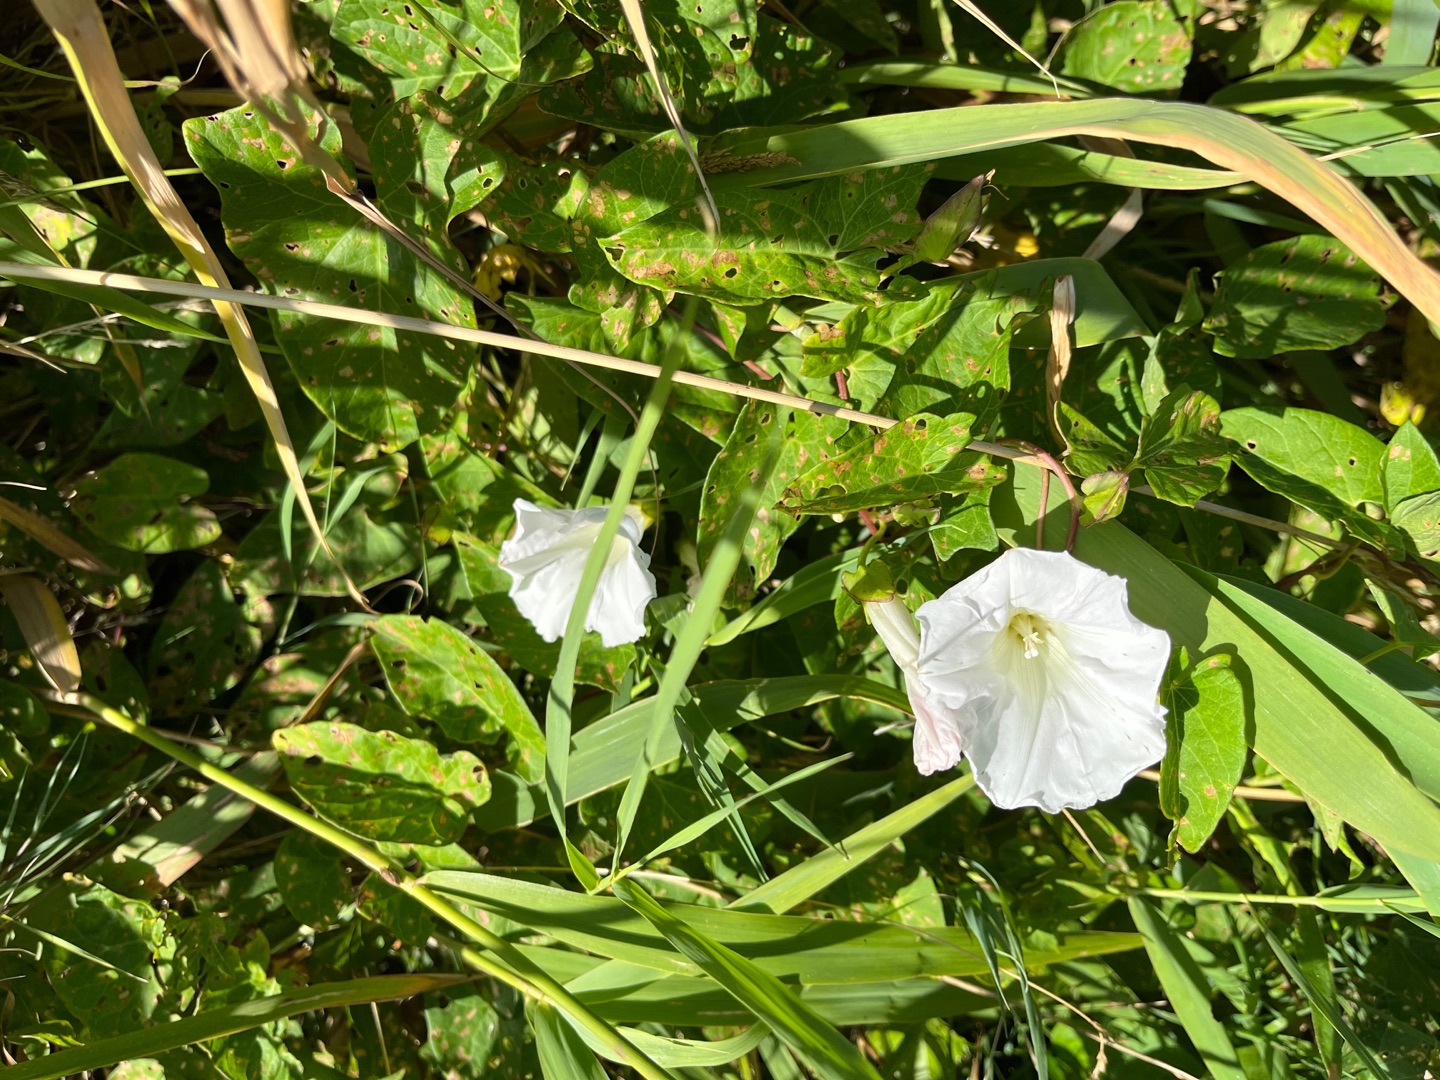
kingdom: Plantae
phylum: Tracheophyta
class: Magnoliopsida
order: Solanales
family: Convolvulaceae
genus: Calystegia
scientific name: Calystegia sepium
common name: Gærde-snerle
